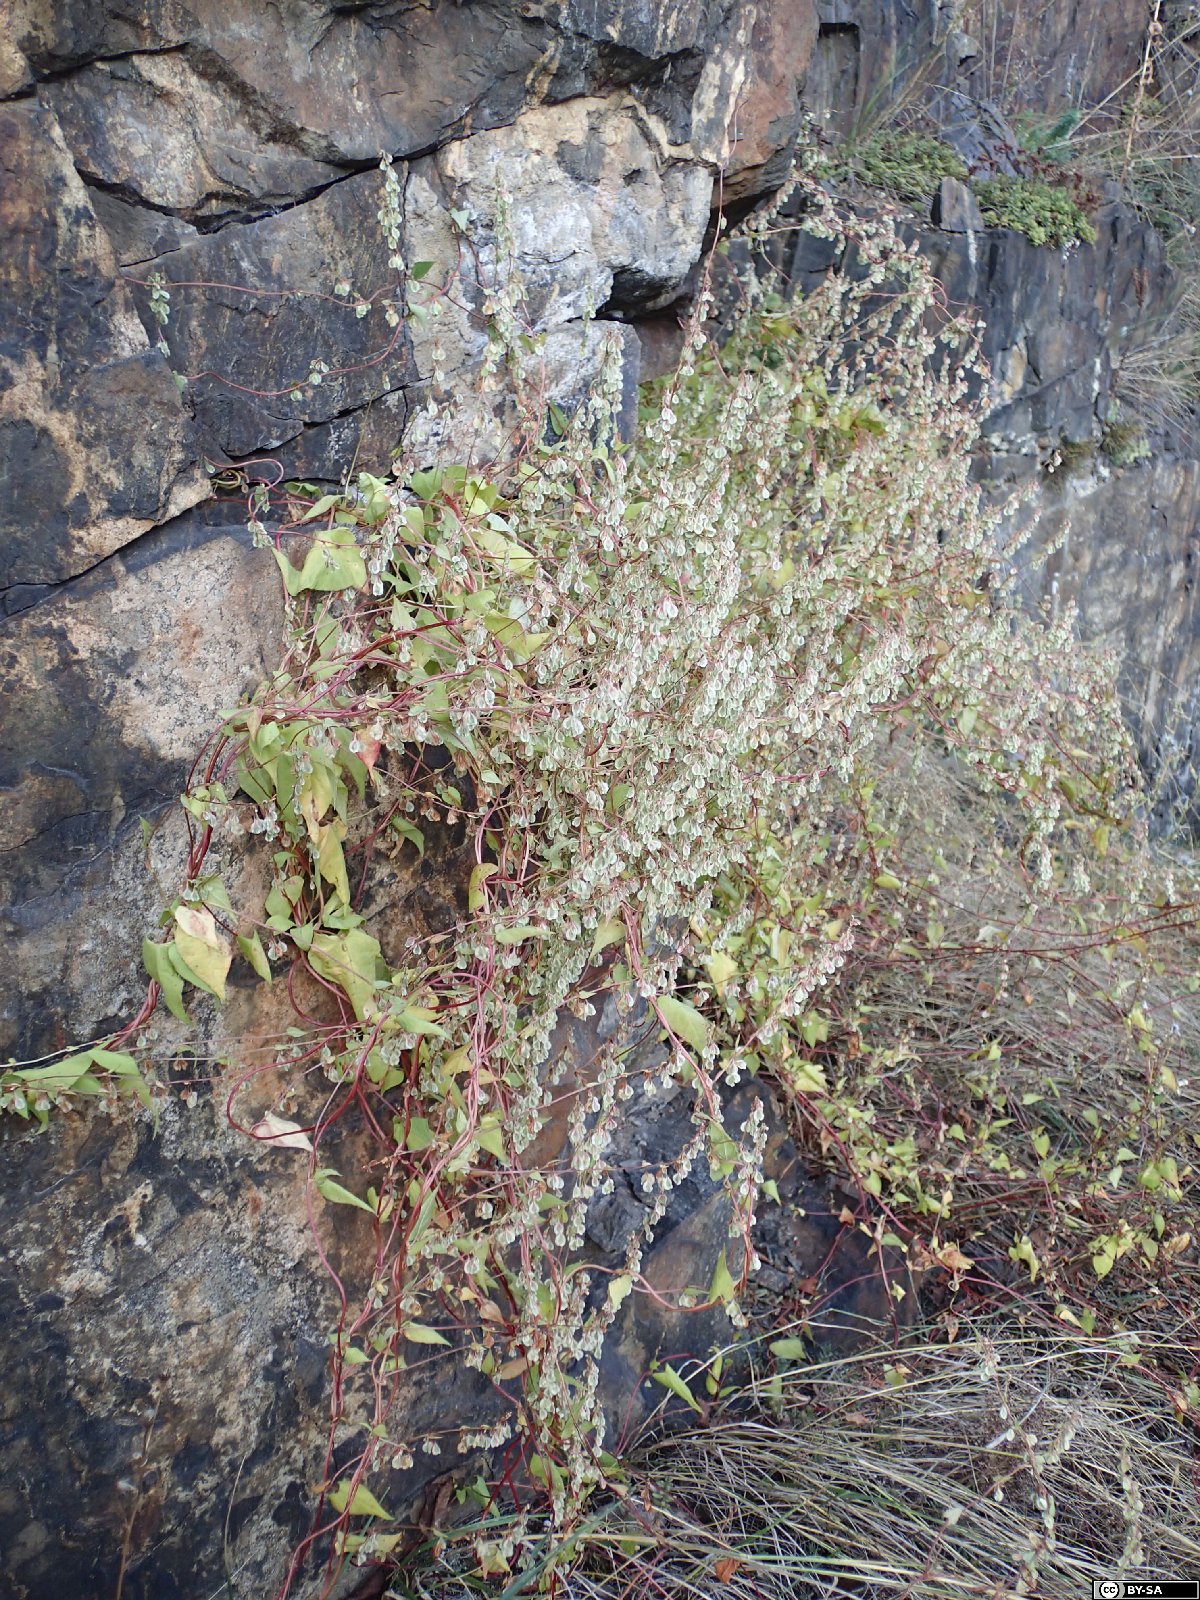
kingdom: Plantae
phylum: Tracheophyta
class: Magnoliopsida
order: Caryophyllales
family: Polygonaceae
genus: Fallopia
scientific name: Fallopia dumetorum
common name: Copse-bindweed
